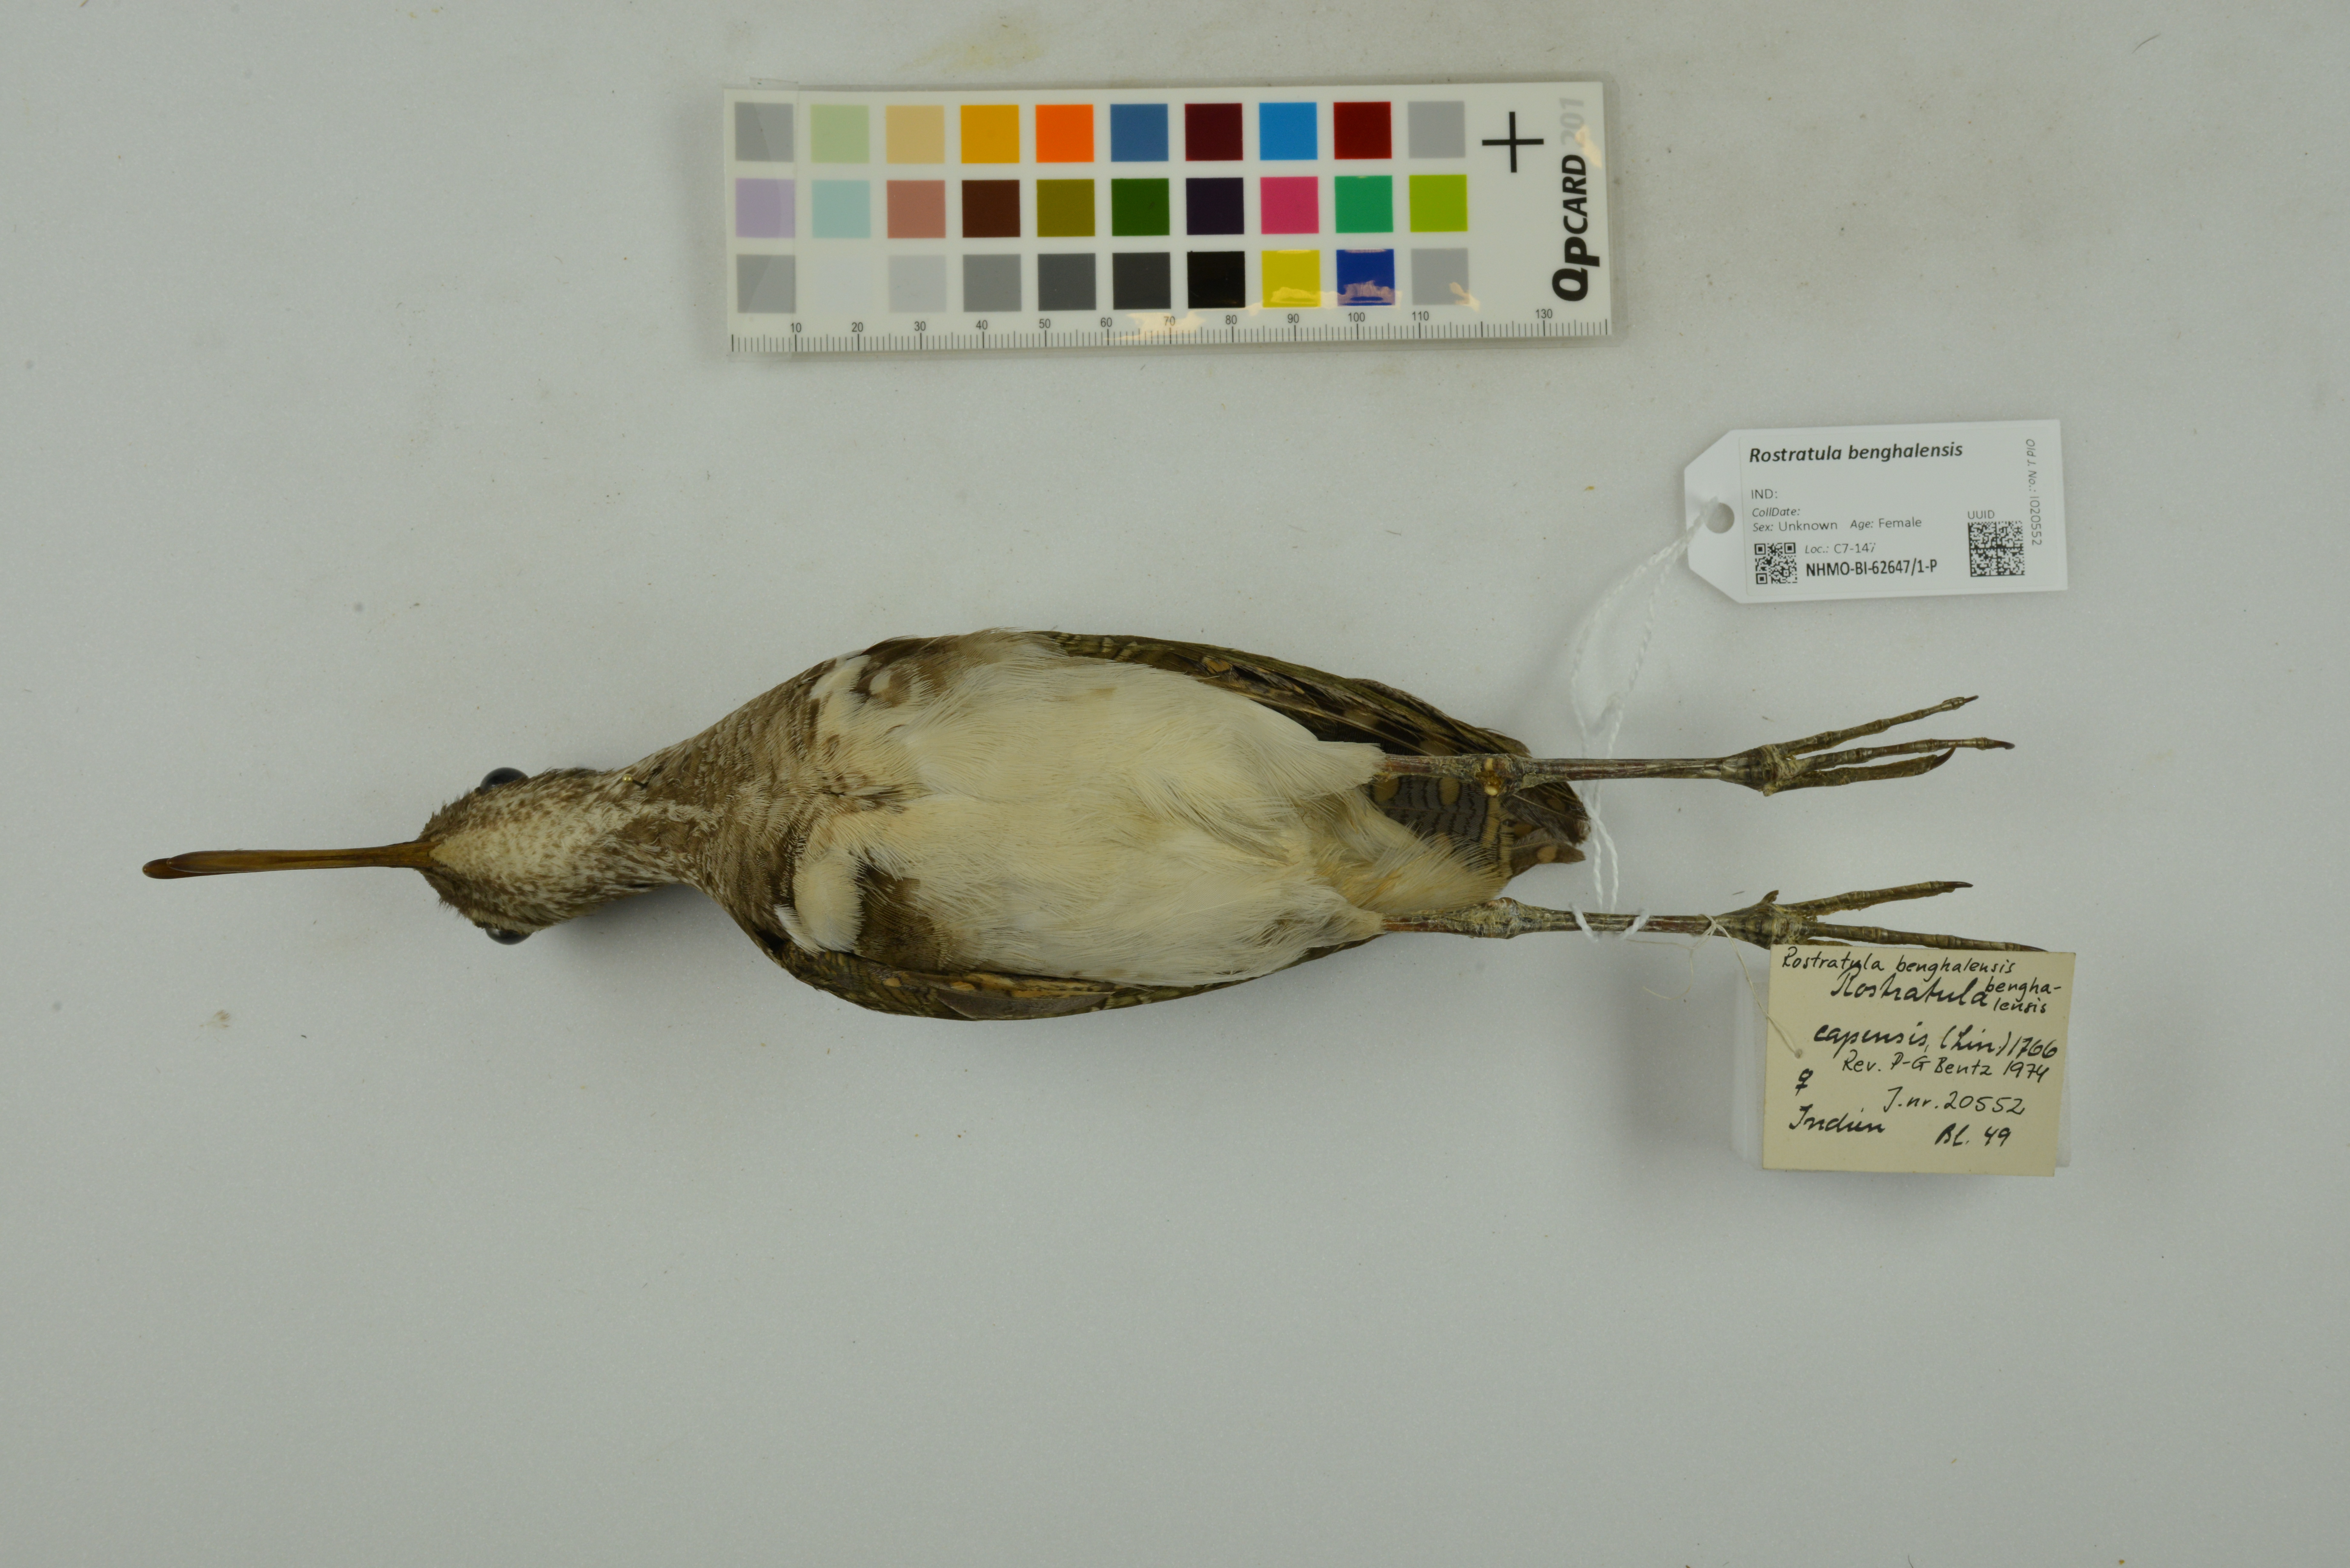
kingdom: Animalia
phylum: Chordata
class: Aves
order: Charadriiformes
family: Rostratulidae
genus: Rostratula
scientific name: Rostratula benghalensis
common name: Greater painted-snipe
